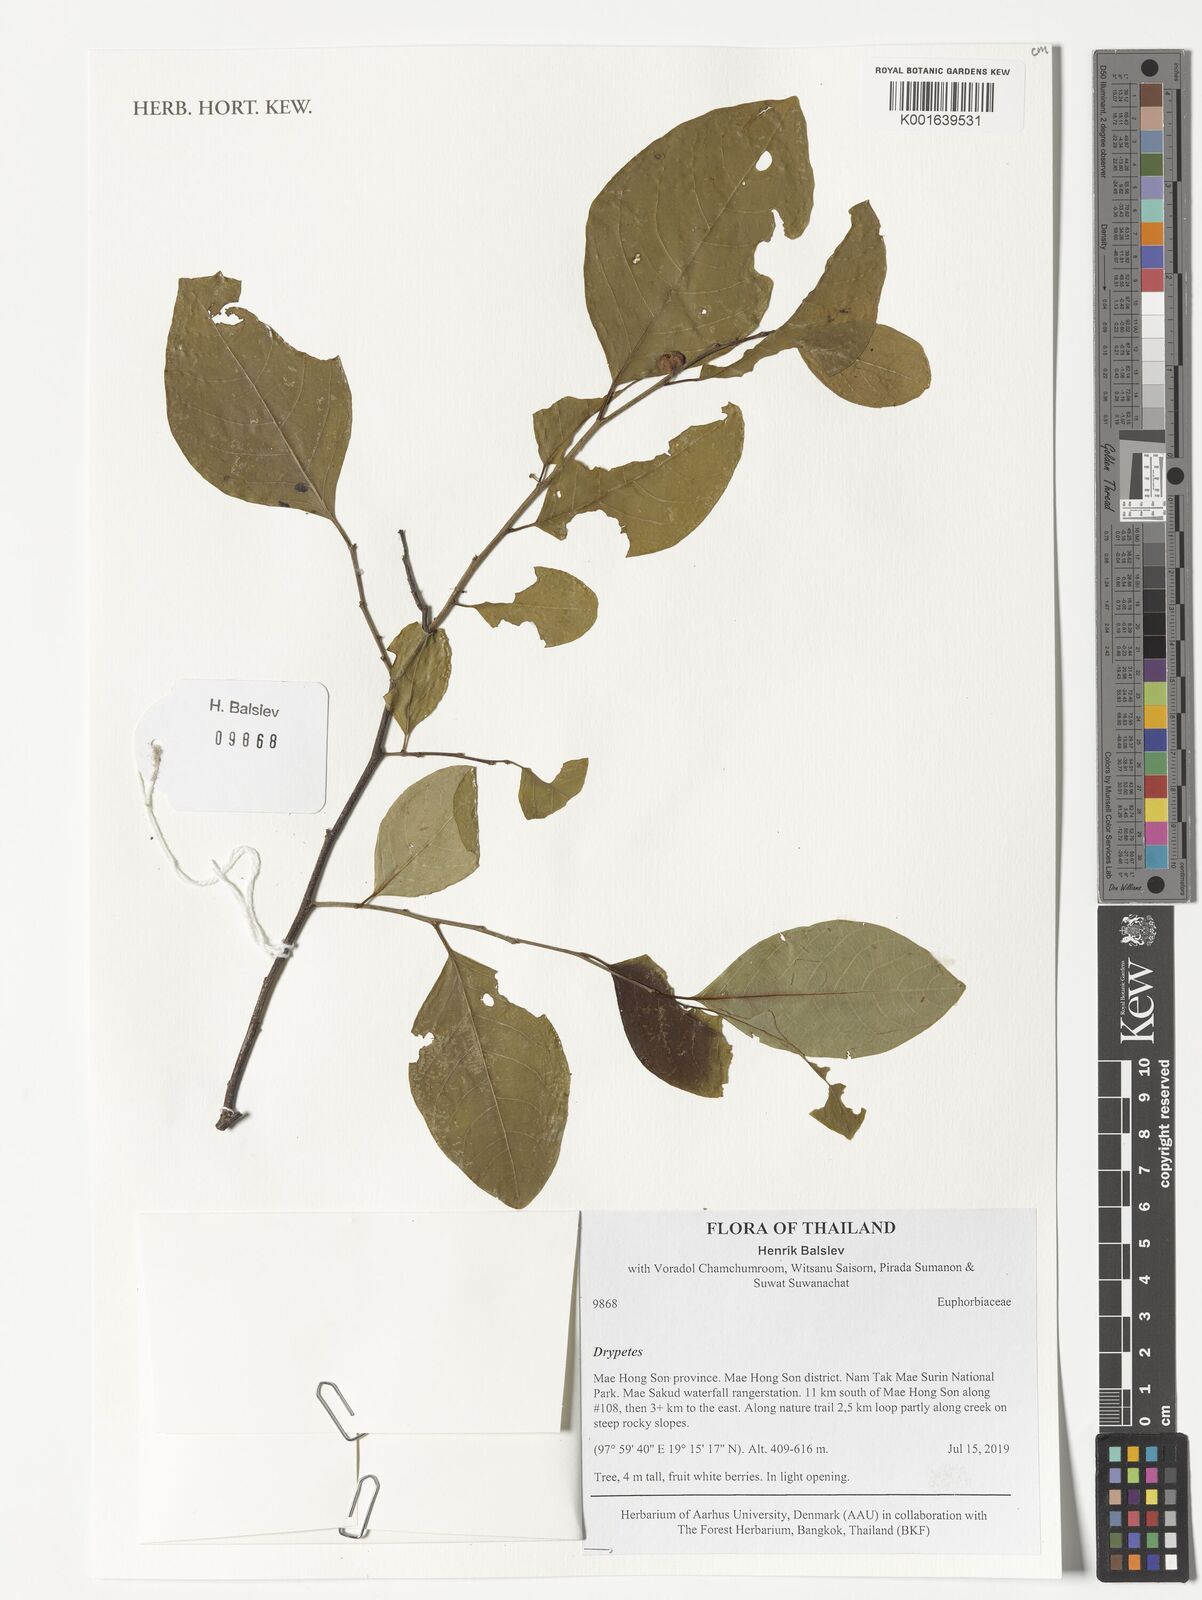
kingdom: Plantae
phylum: Tracheophyta
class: Magnoliopsida
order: Malpighiales
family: Putranjivaceae
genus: Drypetes
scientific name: Drypetes
